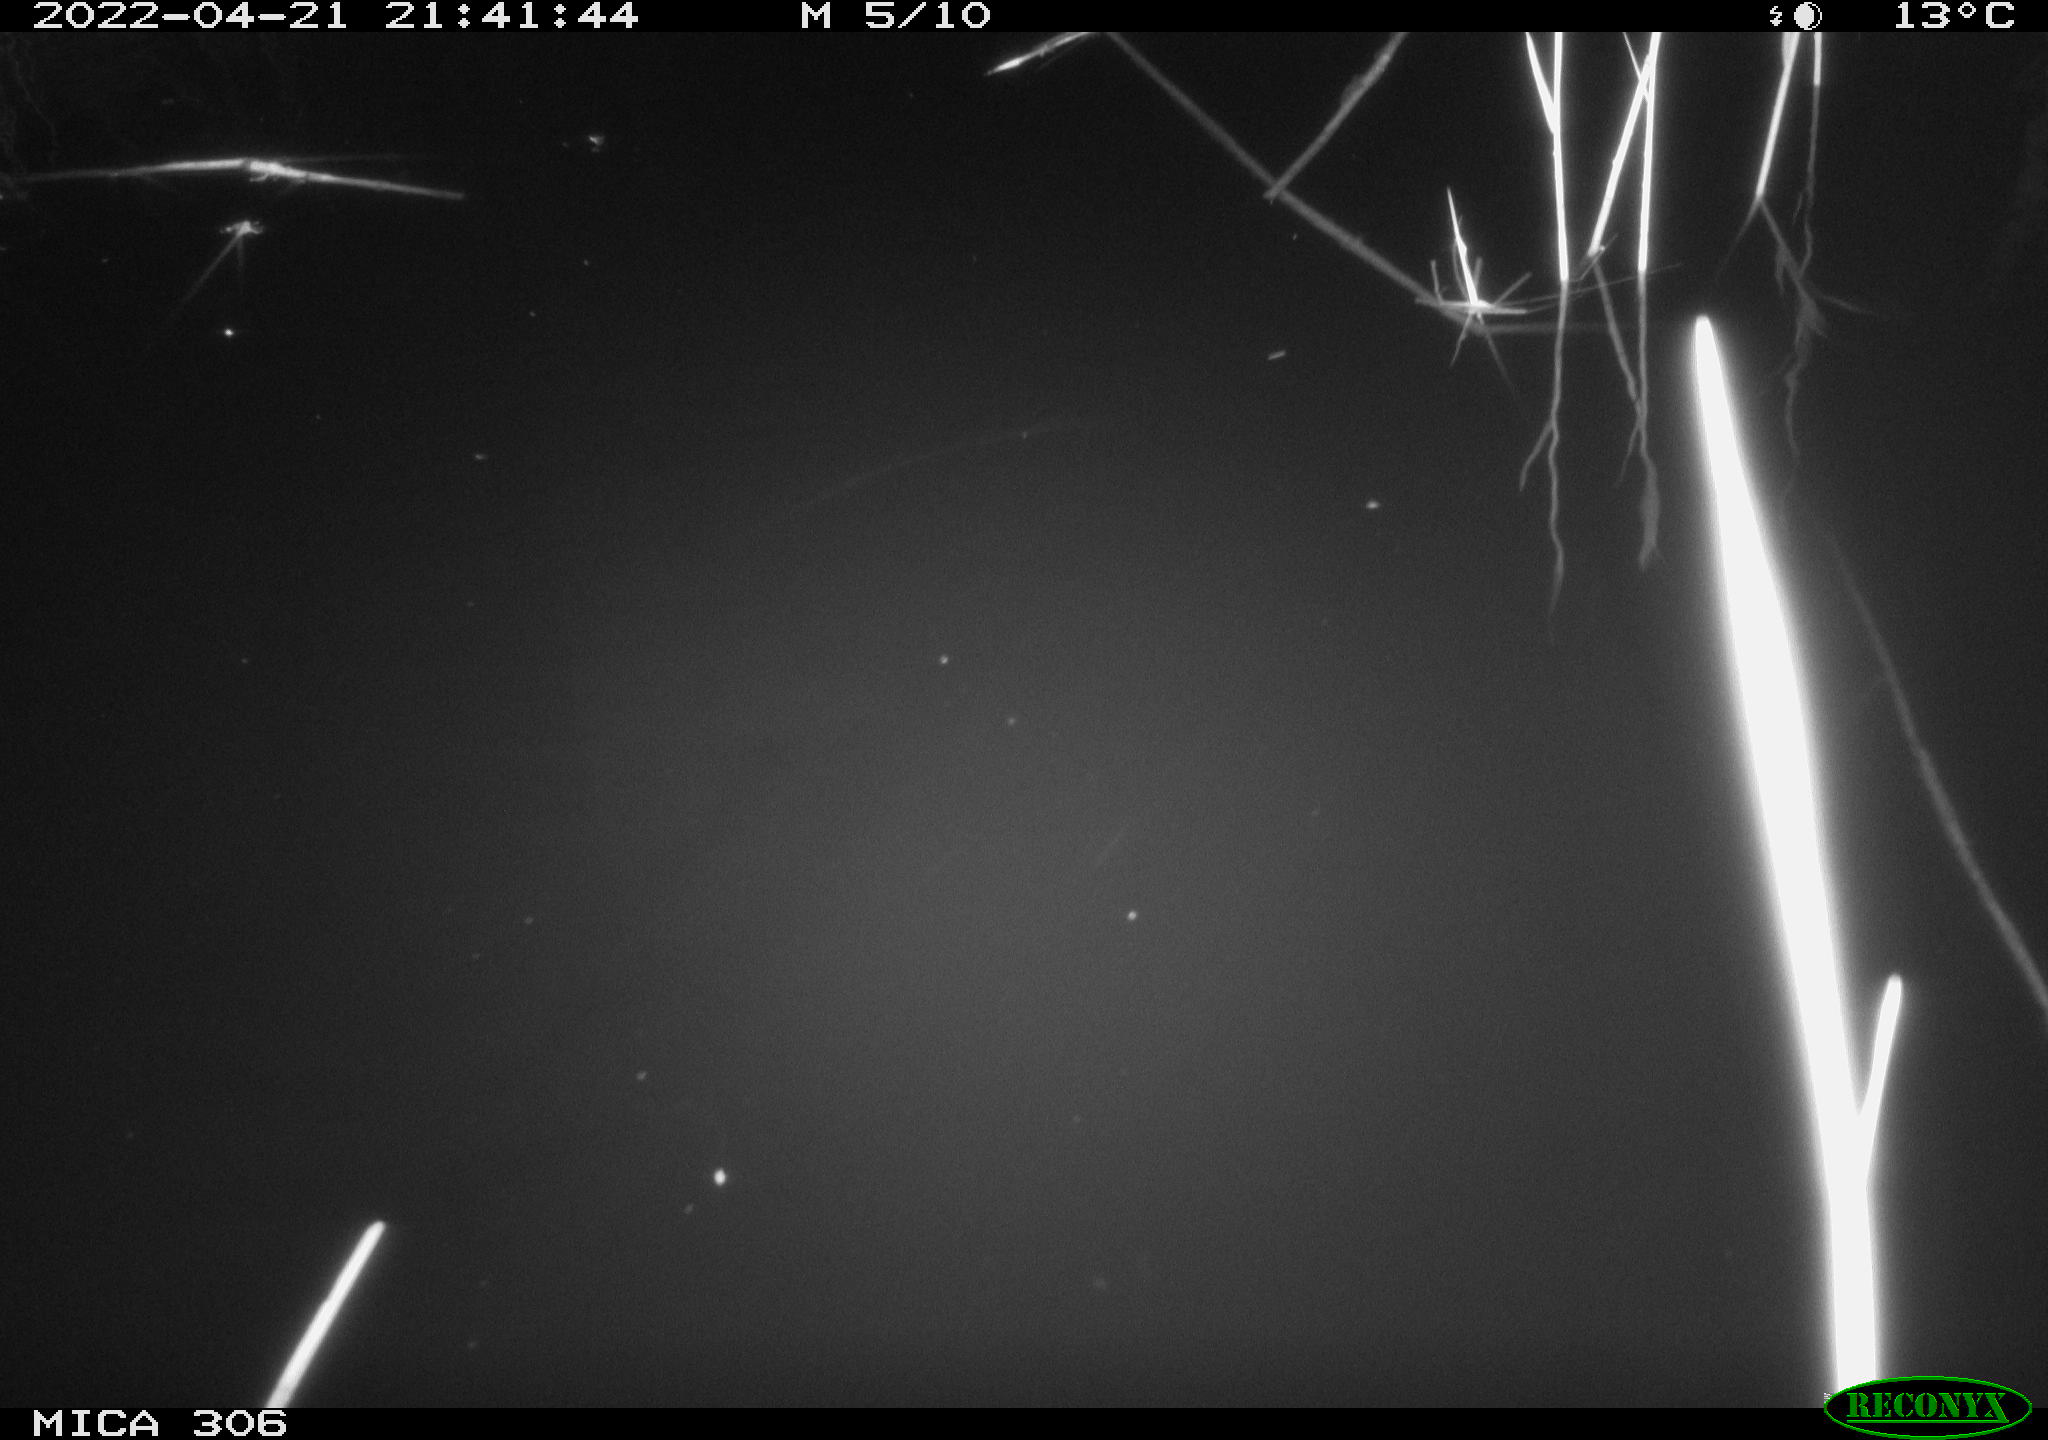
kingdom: Animalia
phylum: Chordata
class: Aves
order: Gruiformes
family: Rallidae
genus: Gallinula
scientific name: Gallinula chloropus
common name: Common moorhen
